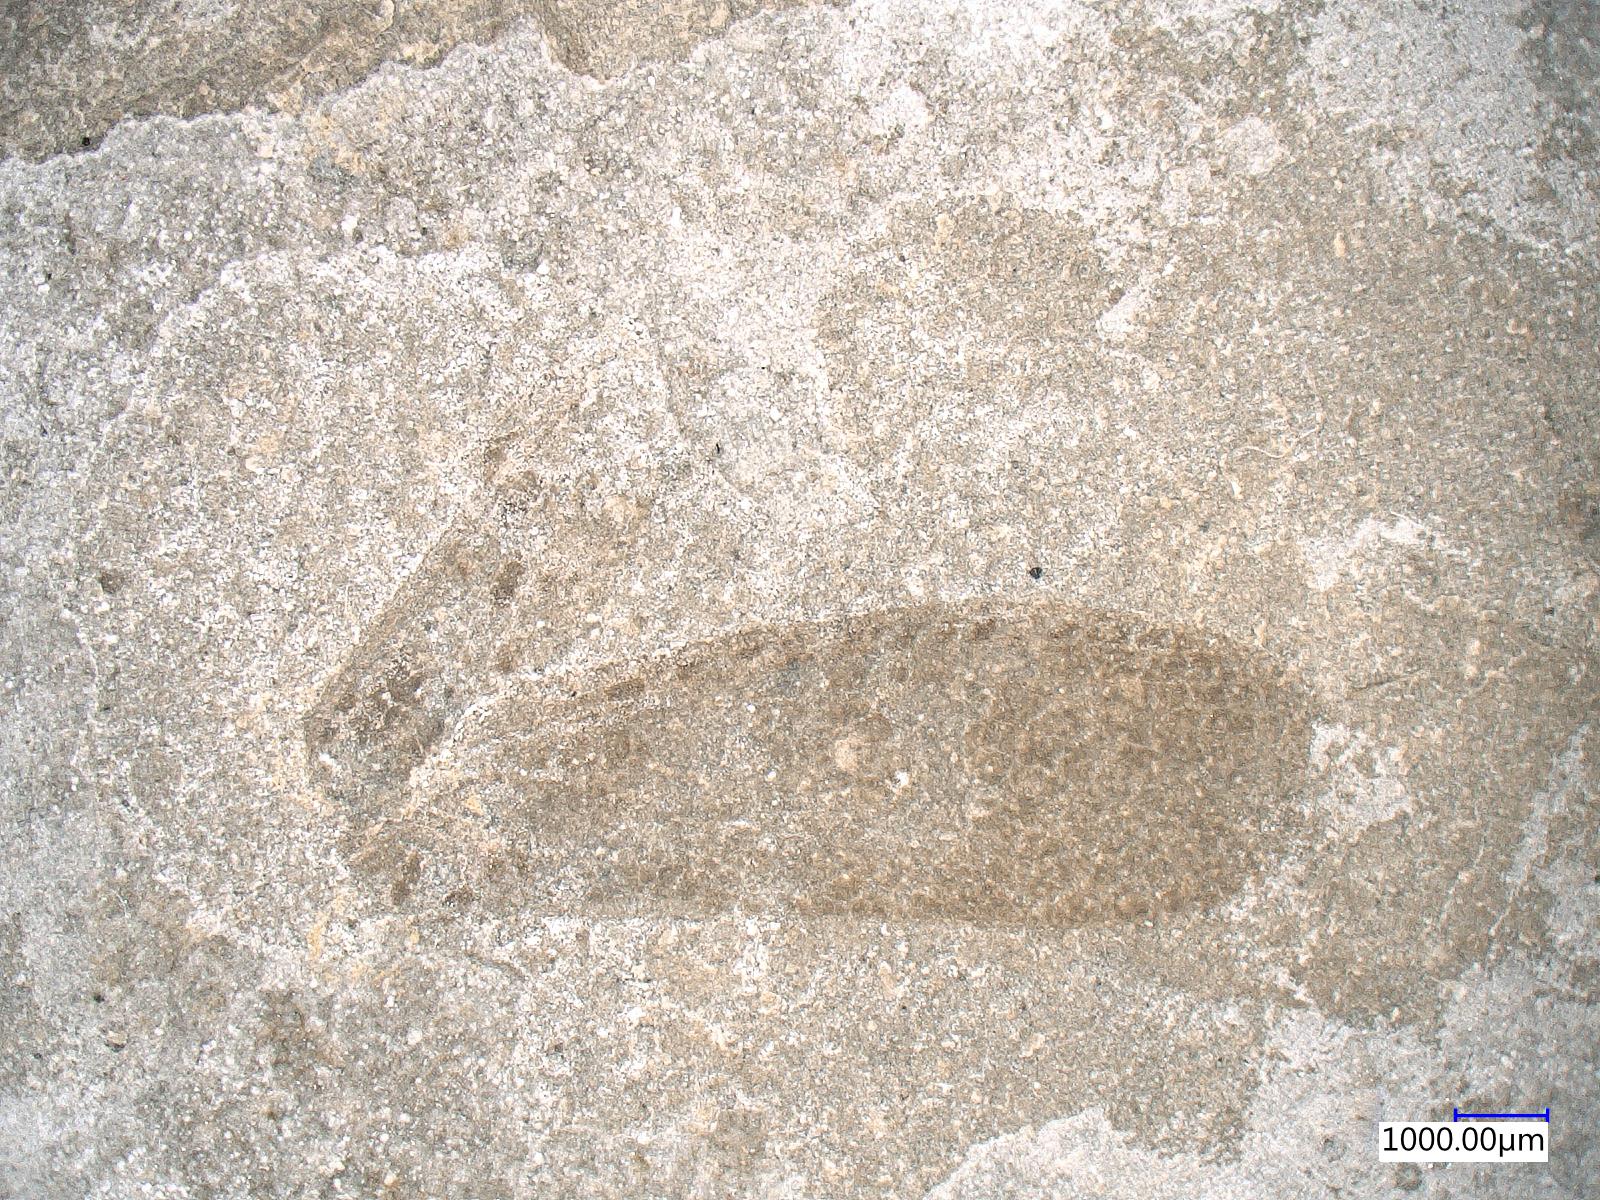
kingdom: Animalia
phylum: Arthropoda
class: Insecta
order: Orthoptera
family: Locustopsidae
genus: Locustopsis
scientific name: Locustopsis
